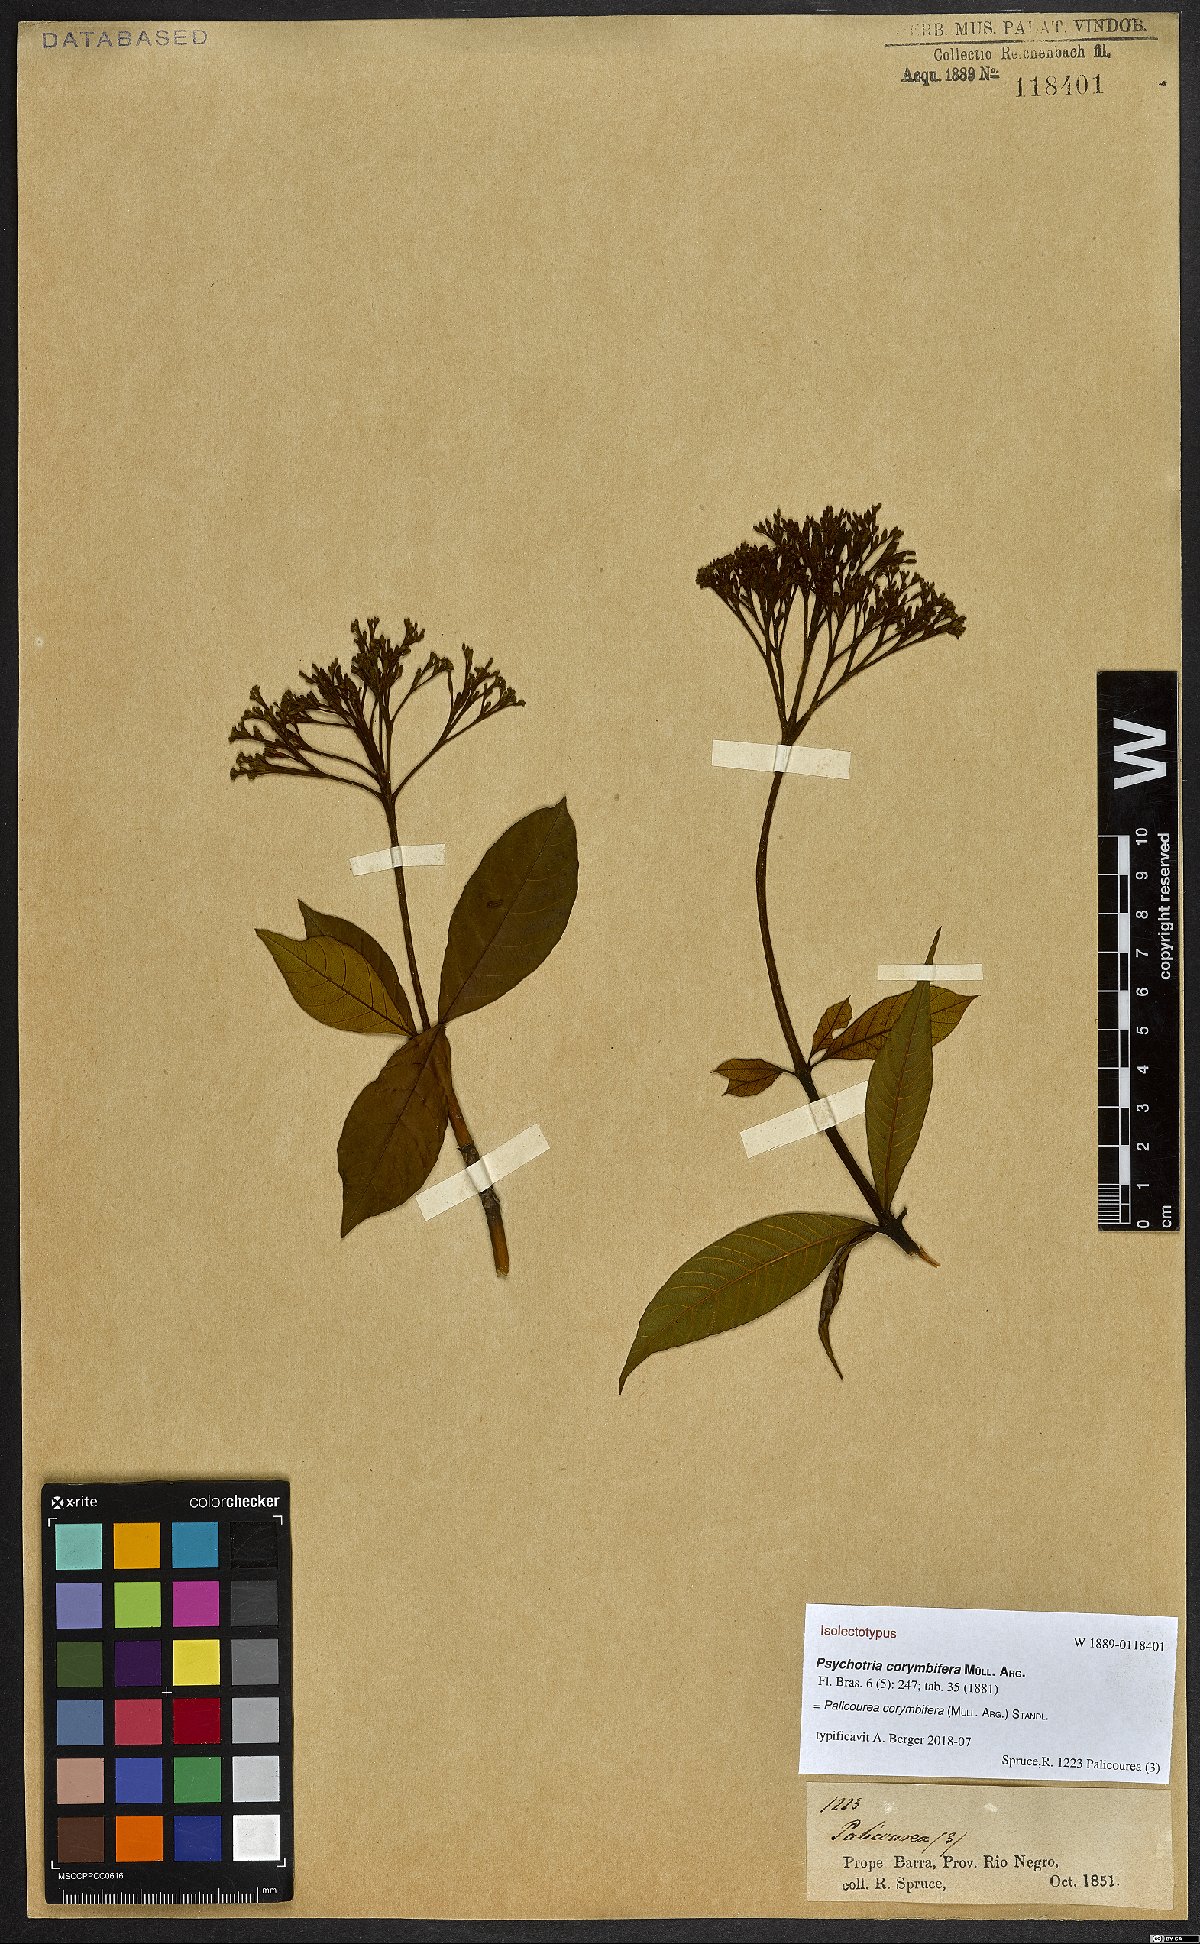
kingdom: Plantae
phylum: Tracheophyta
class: Magnoliopsida
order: Gentianales
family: Rubiaceae
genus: Palicourea
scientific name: Palicourea corymbifera
